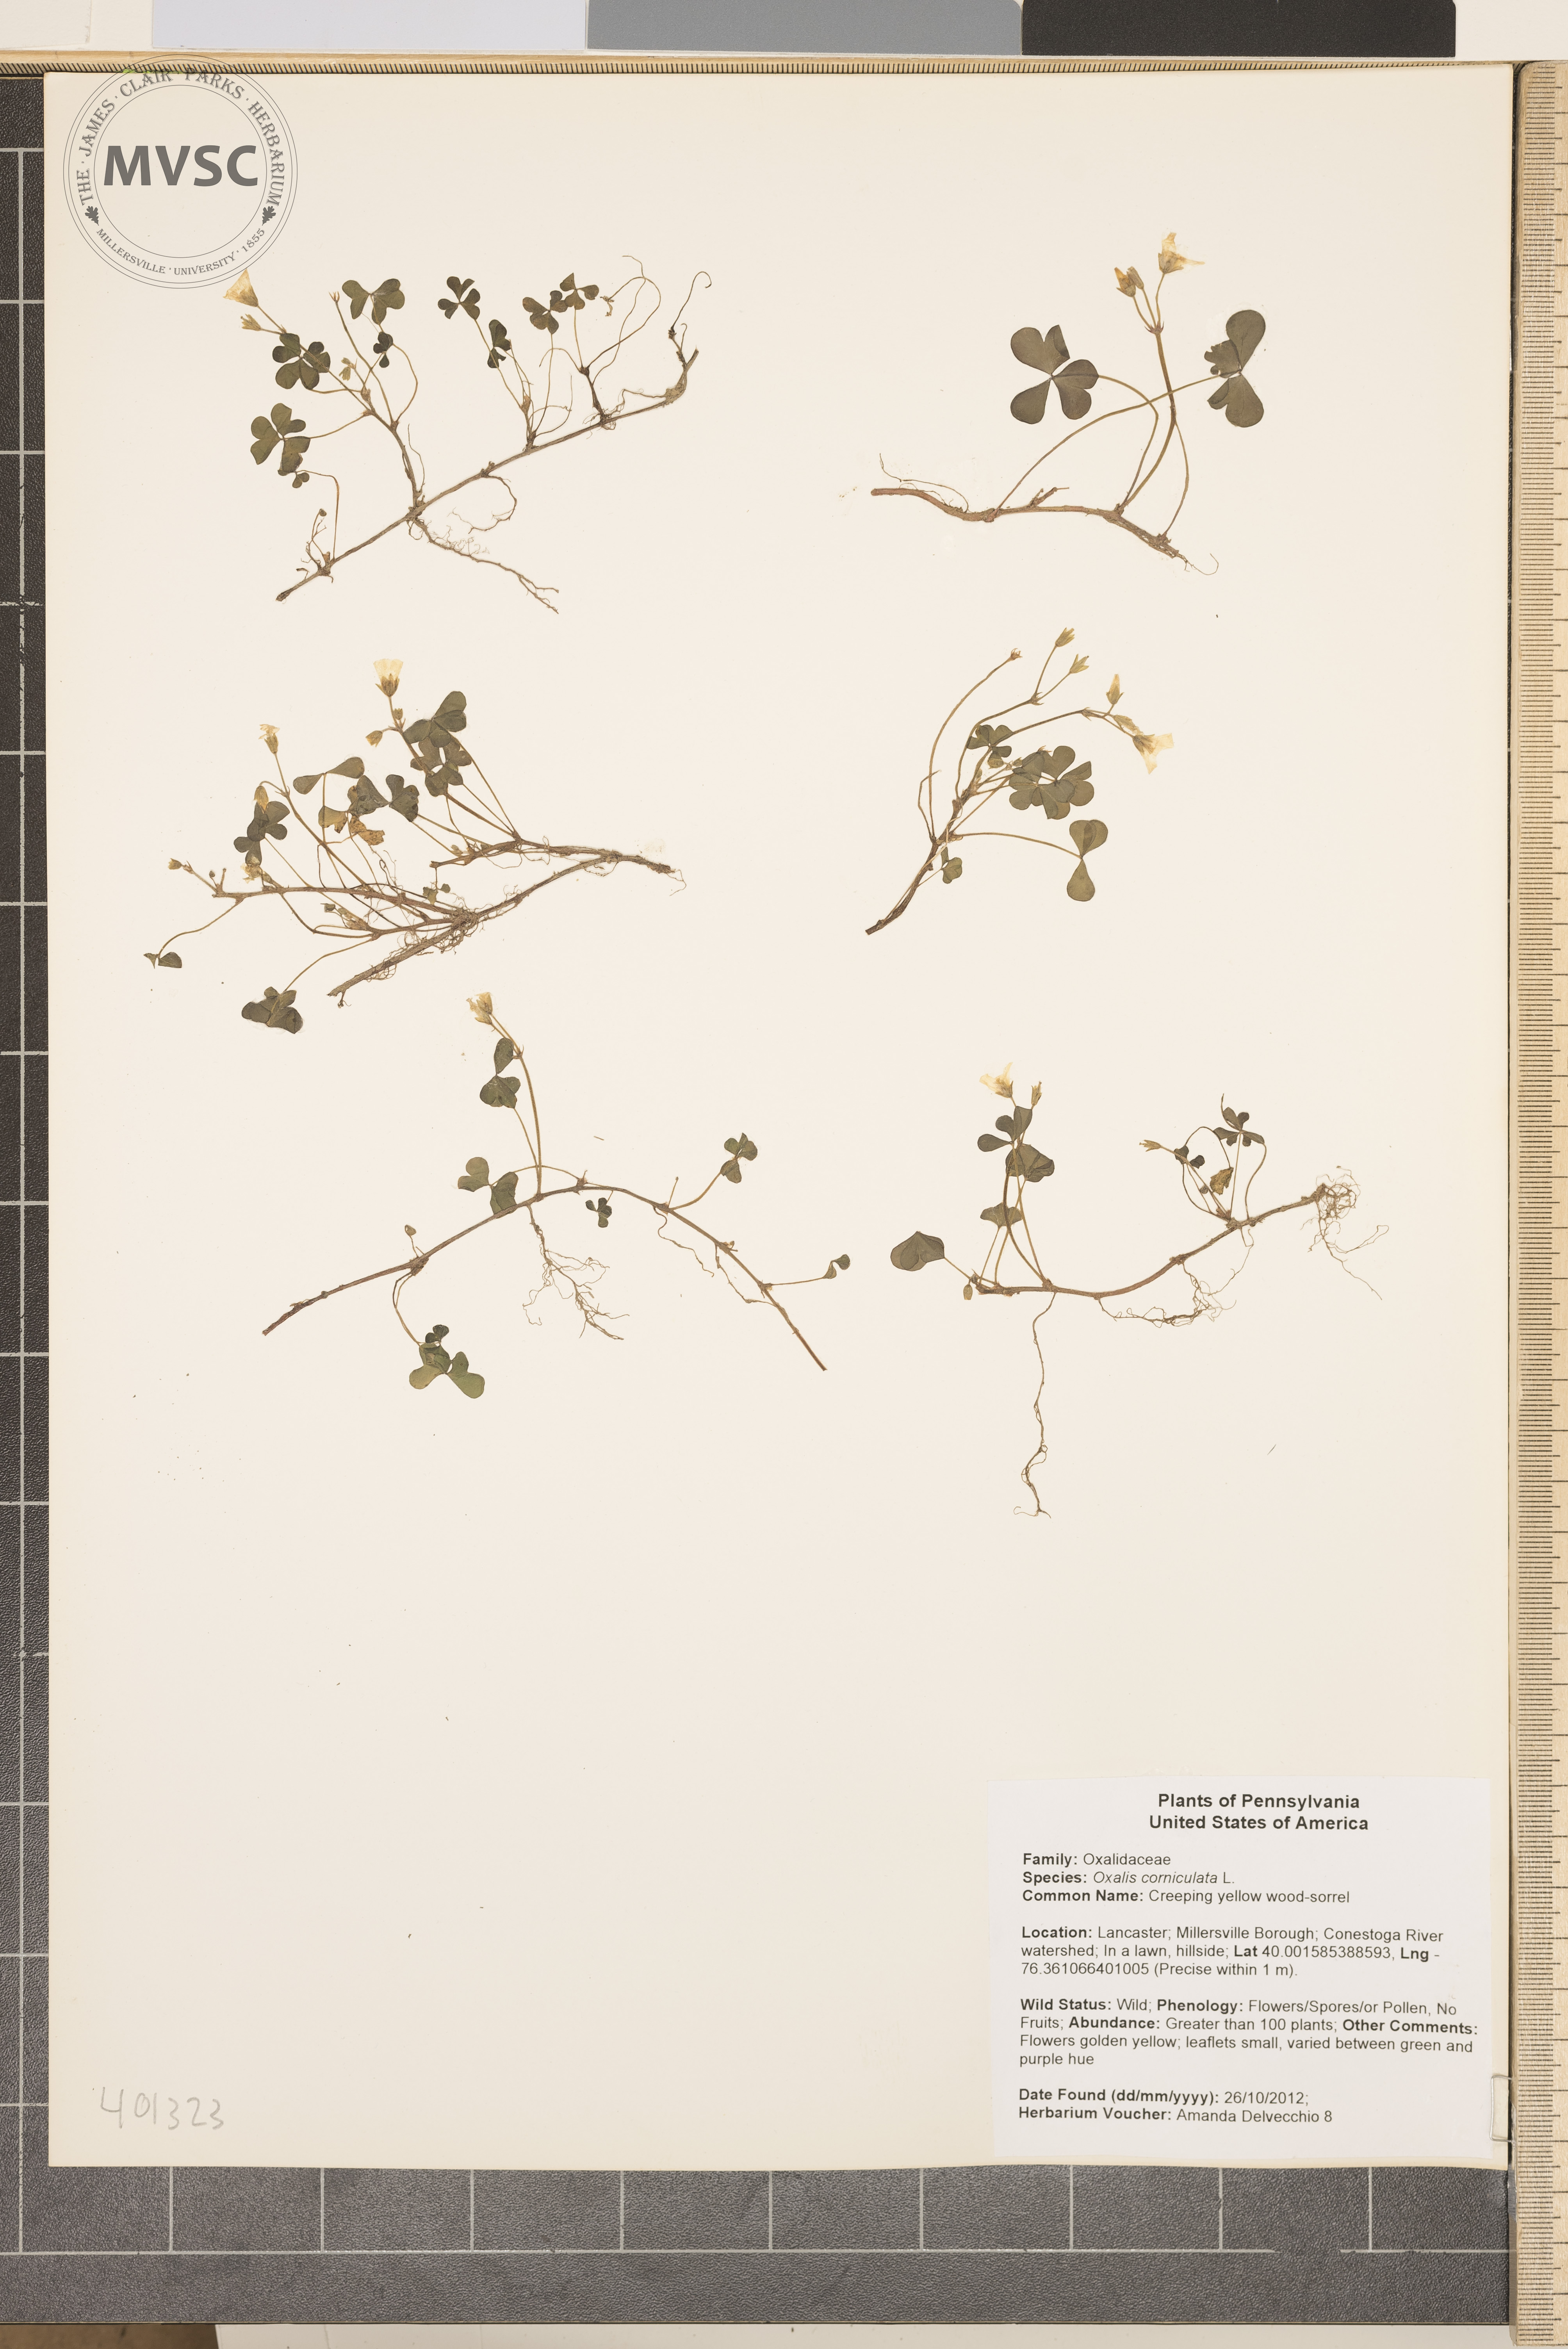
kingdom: Plantae
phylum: Tracheophyta
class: Magnoliopsida
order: Oxalidales
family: Oxalidaceae
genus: Oxalis
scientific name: Oxalis corniculata
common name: Creeping yellow wood-sorrel
